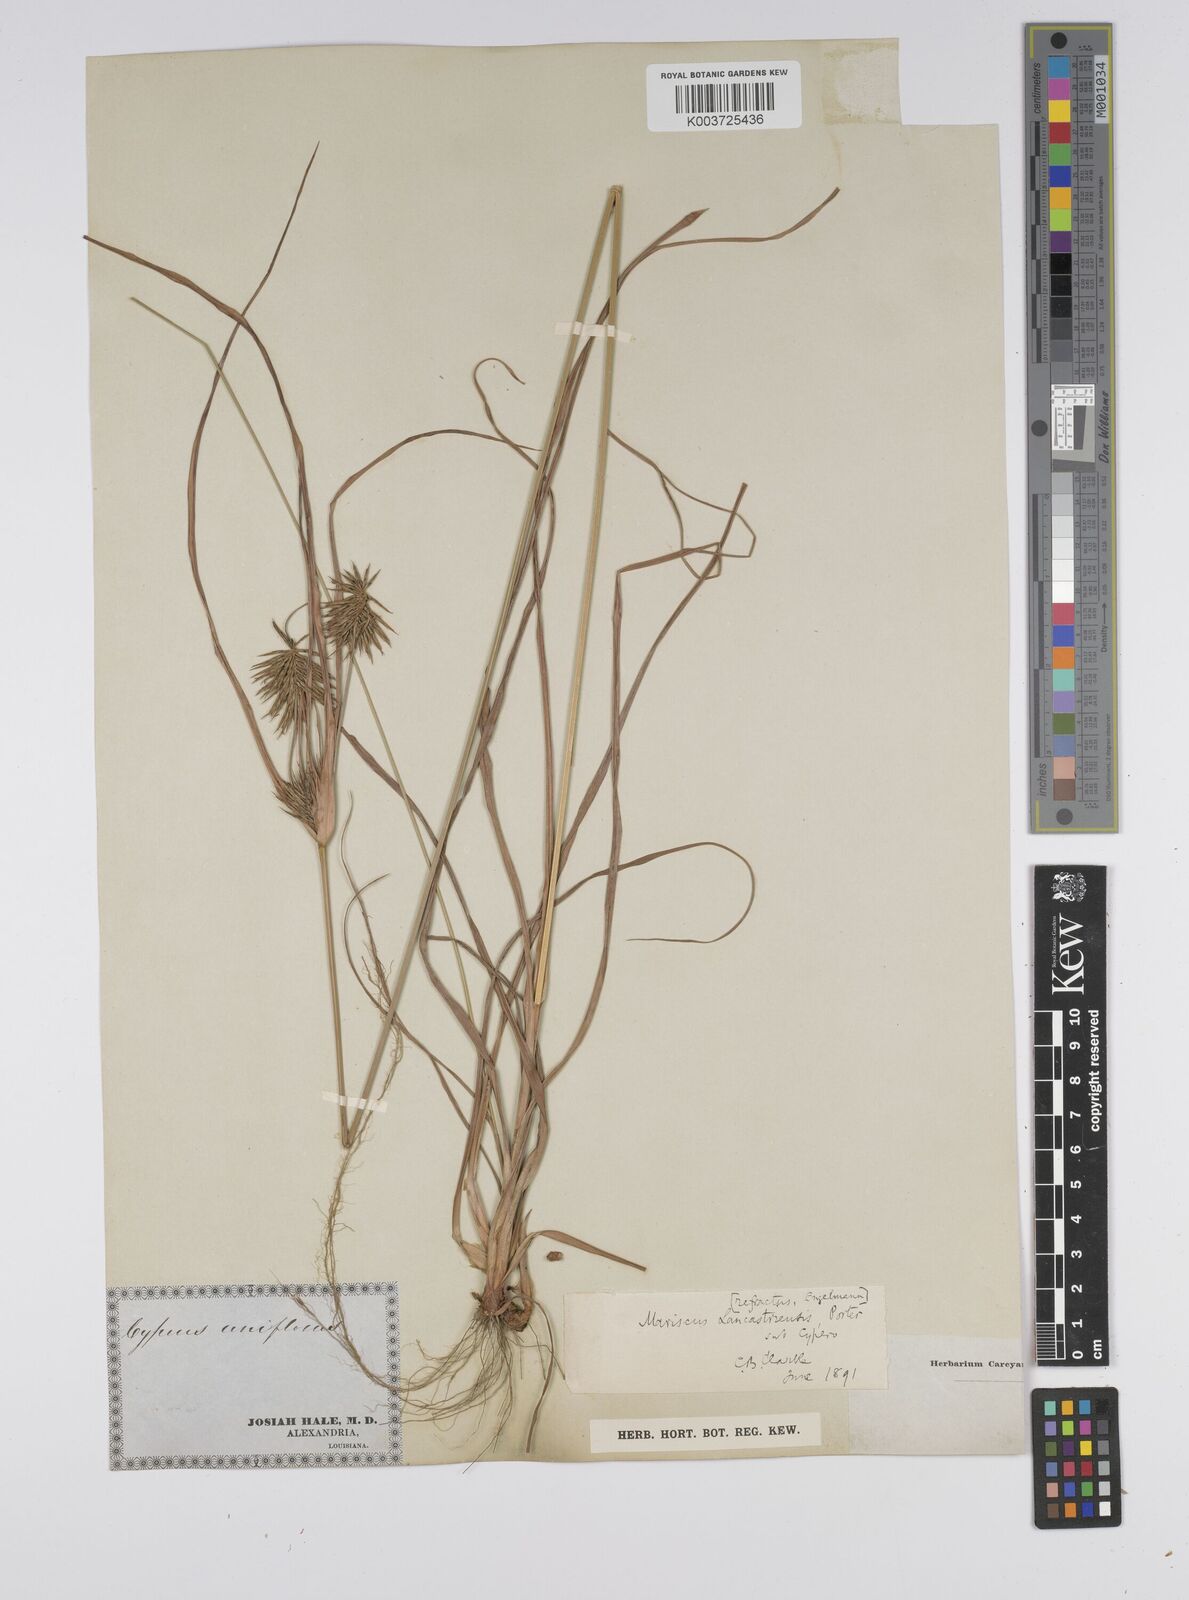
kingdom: Plantae
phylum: Tracheophyta
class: Liliopsida
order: Poales
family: Cyperaceae
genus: Cyperus
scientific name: Cyperus lancastriensis
